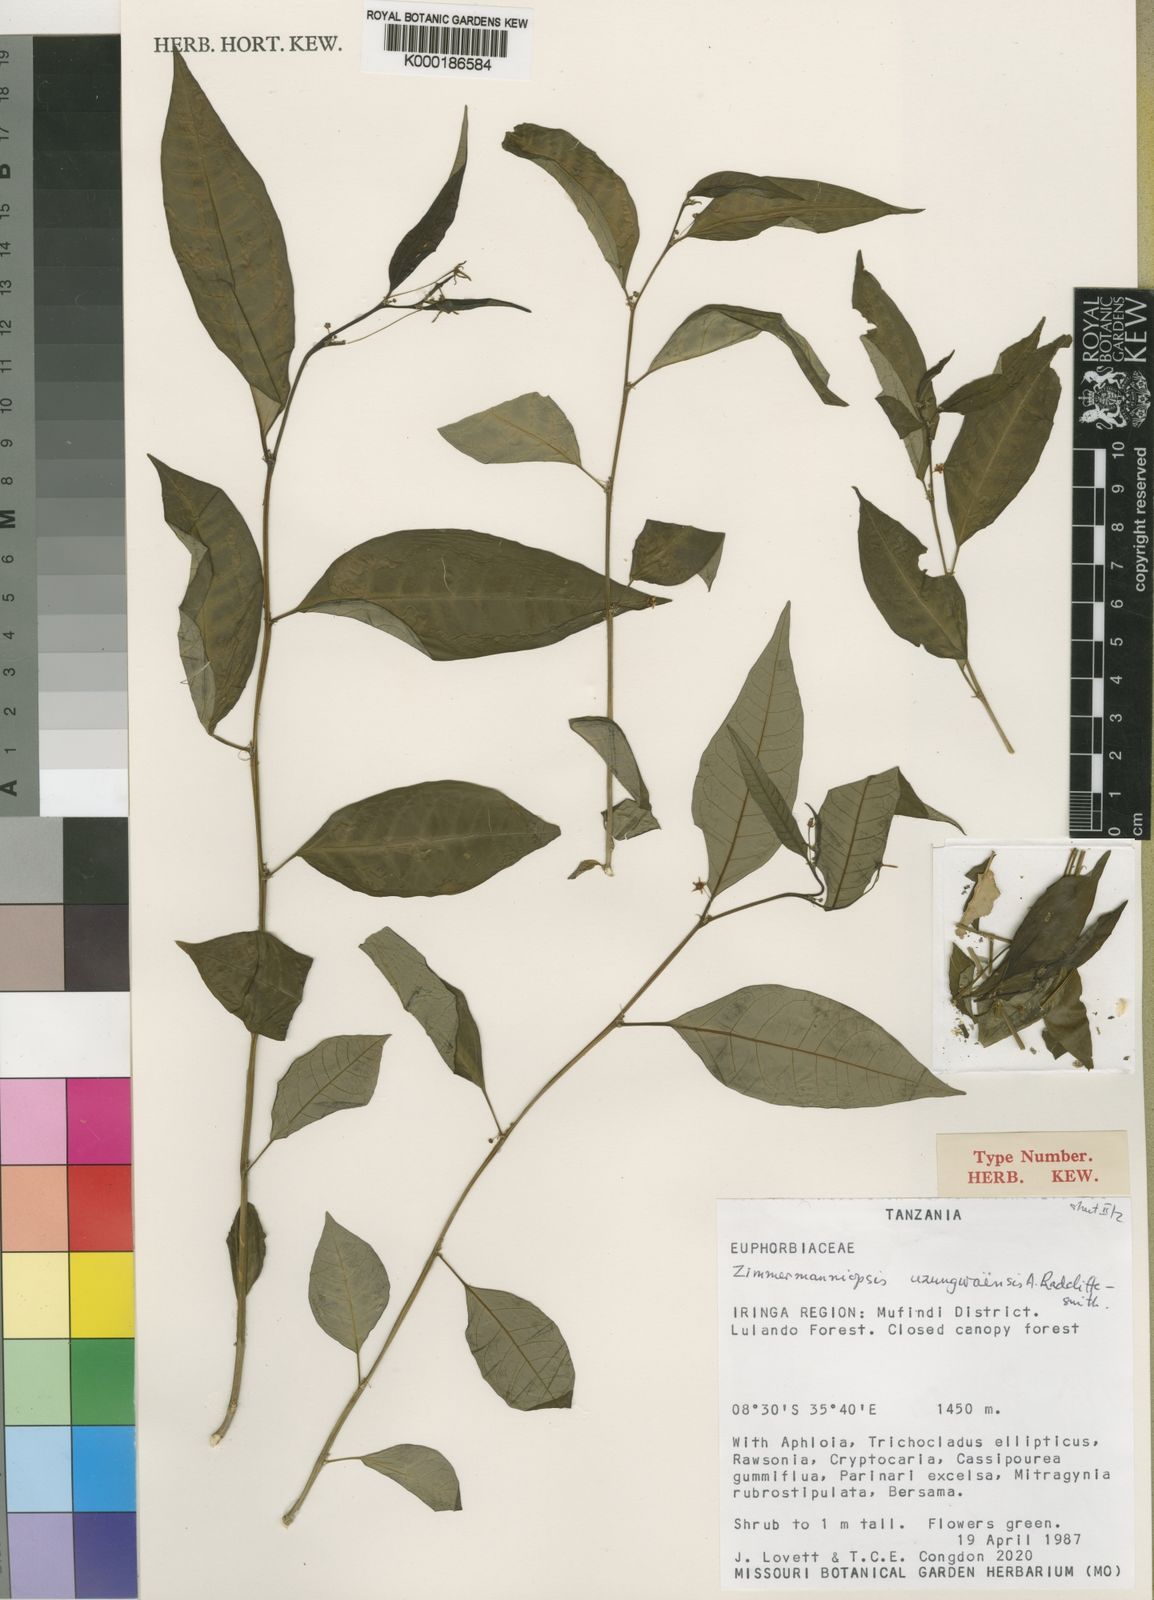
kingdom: Plantae
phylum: Tracheophyta
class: Magnoliopsida
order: Malpighiales
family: Phyllanthaceae
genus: Meineckia
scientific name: Meineckia uzungwaensis
